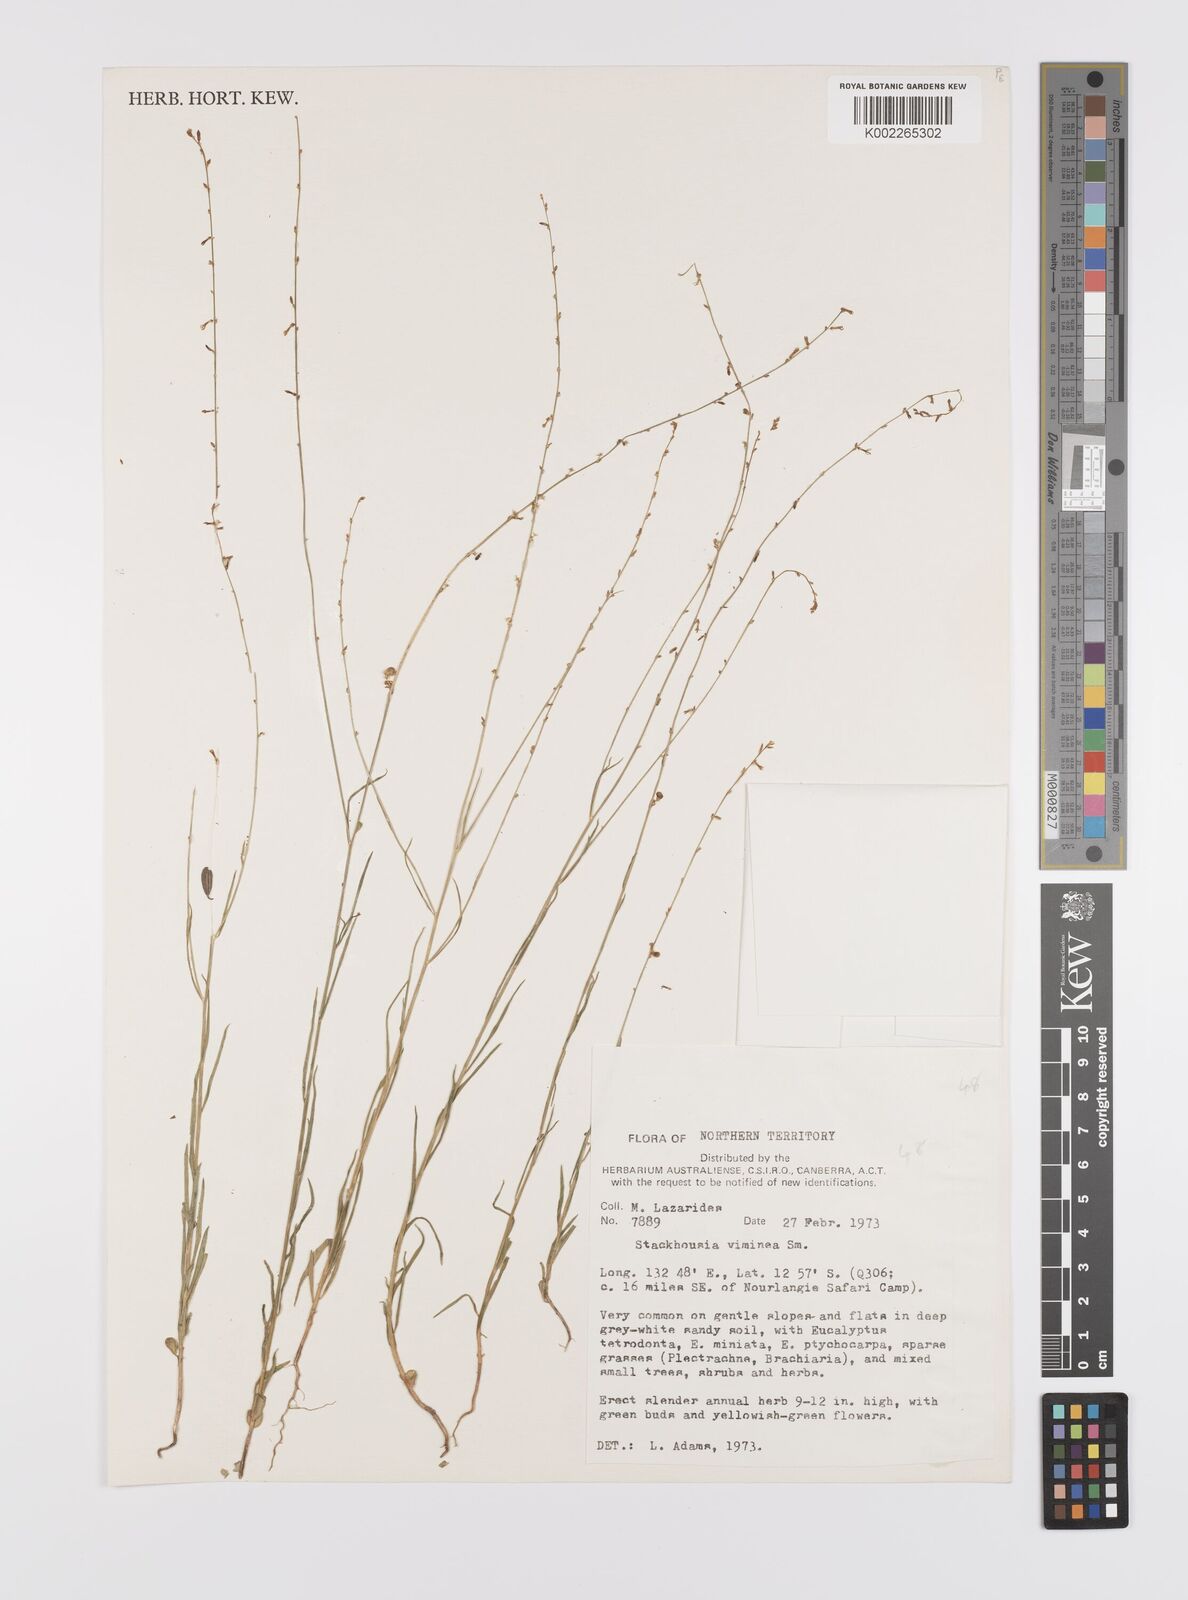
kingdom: Plantae
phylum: Tracheophyta
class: Magnoliopsida
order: Celastrales
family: Celastraceae
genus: Stackhousia
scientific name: Stackhousia viminea
